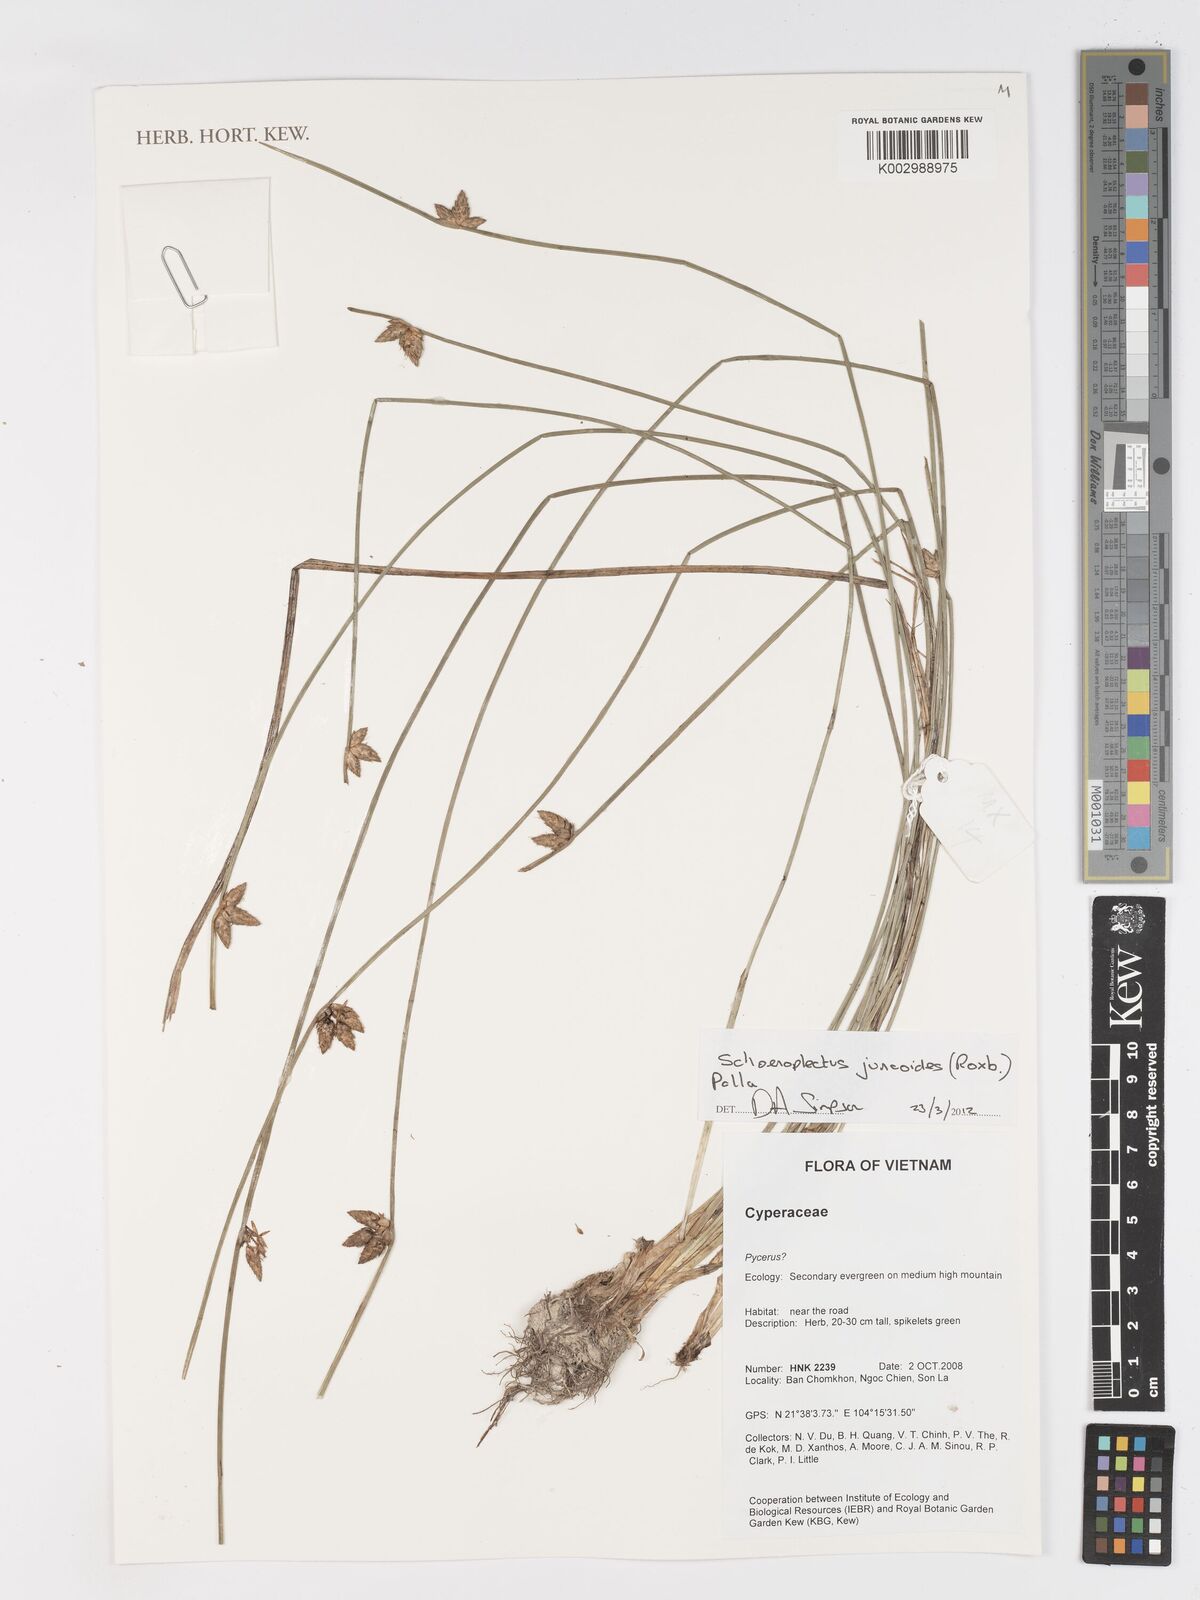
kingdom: Plantae
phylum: Tracheophyta
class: Liliopsida
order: Poales
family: Cyperaceae
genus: Schoenoplectiella
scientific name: Schoenoplectiella juncoides
